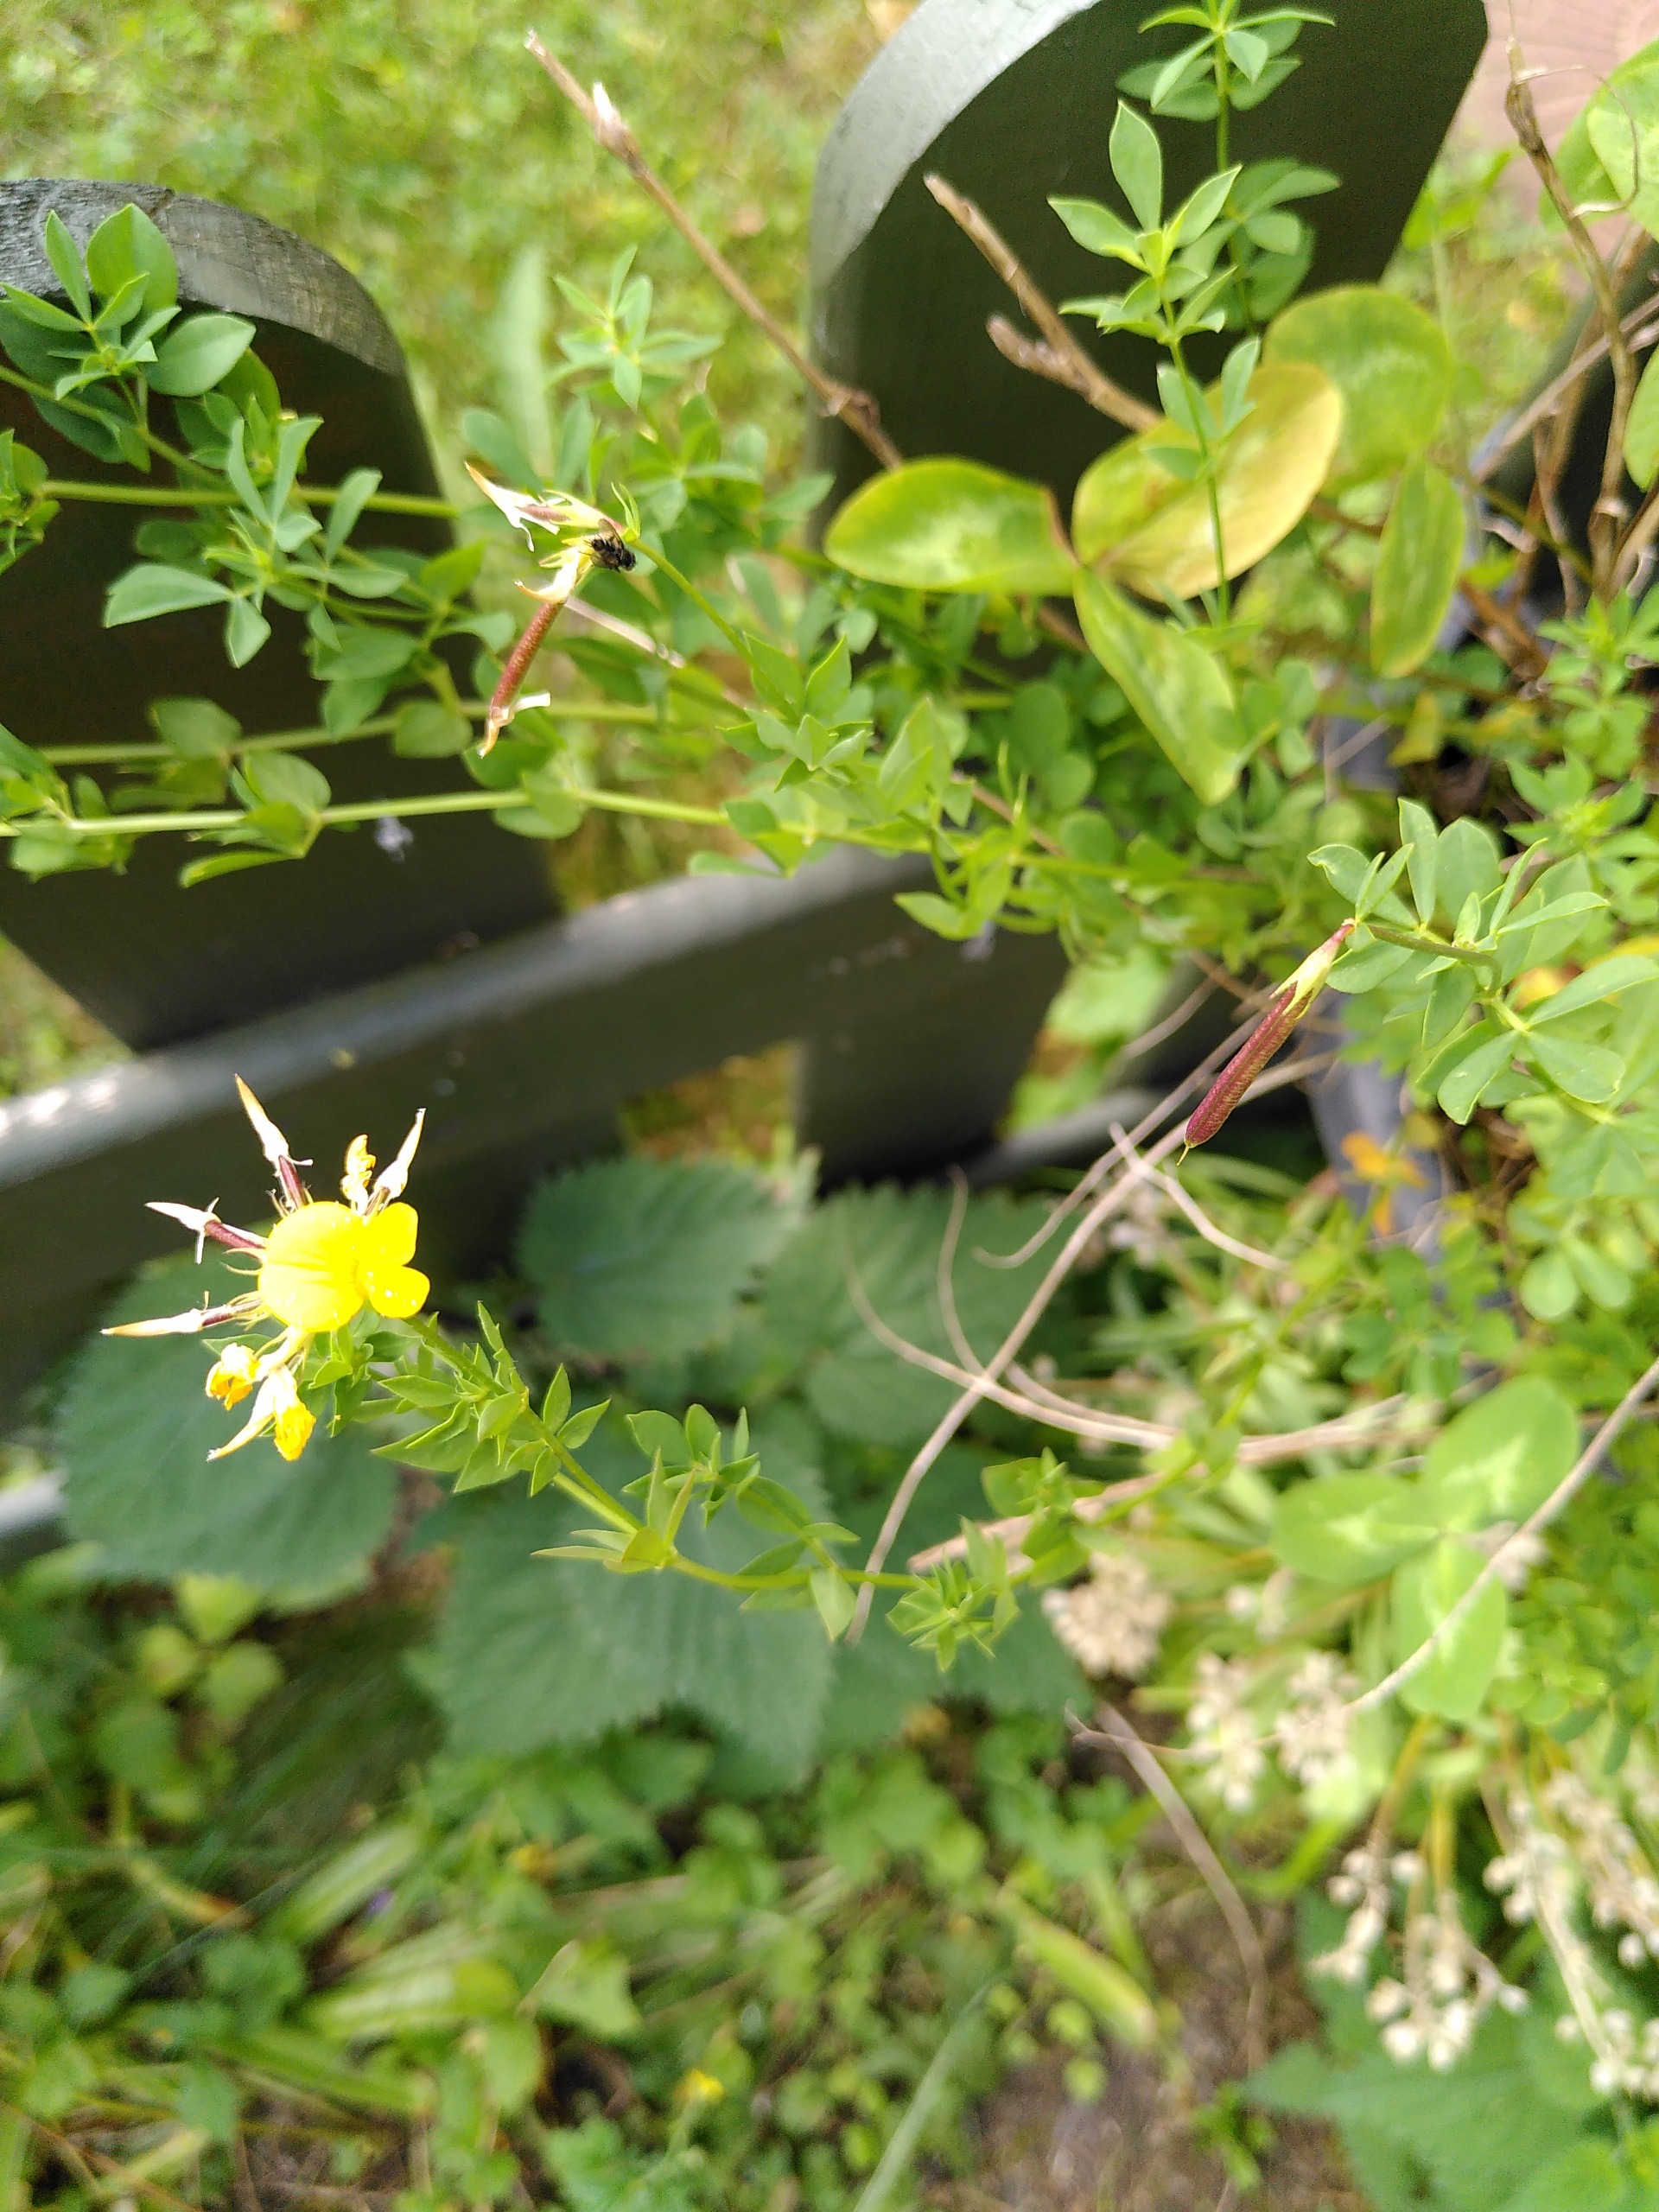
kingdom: Plantae
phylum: Tracheophyta
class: Magnoliopsida
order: Fabales
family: Fabaceae
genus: Lotus
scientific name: Lotus corniculatus
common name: Almindelig kællingetand
